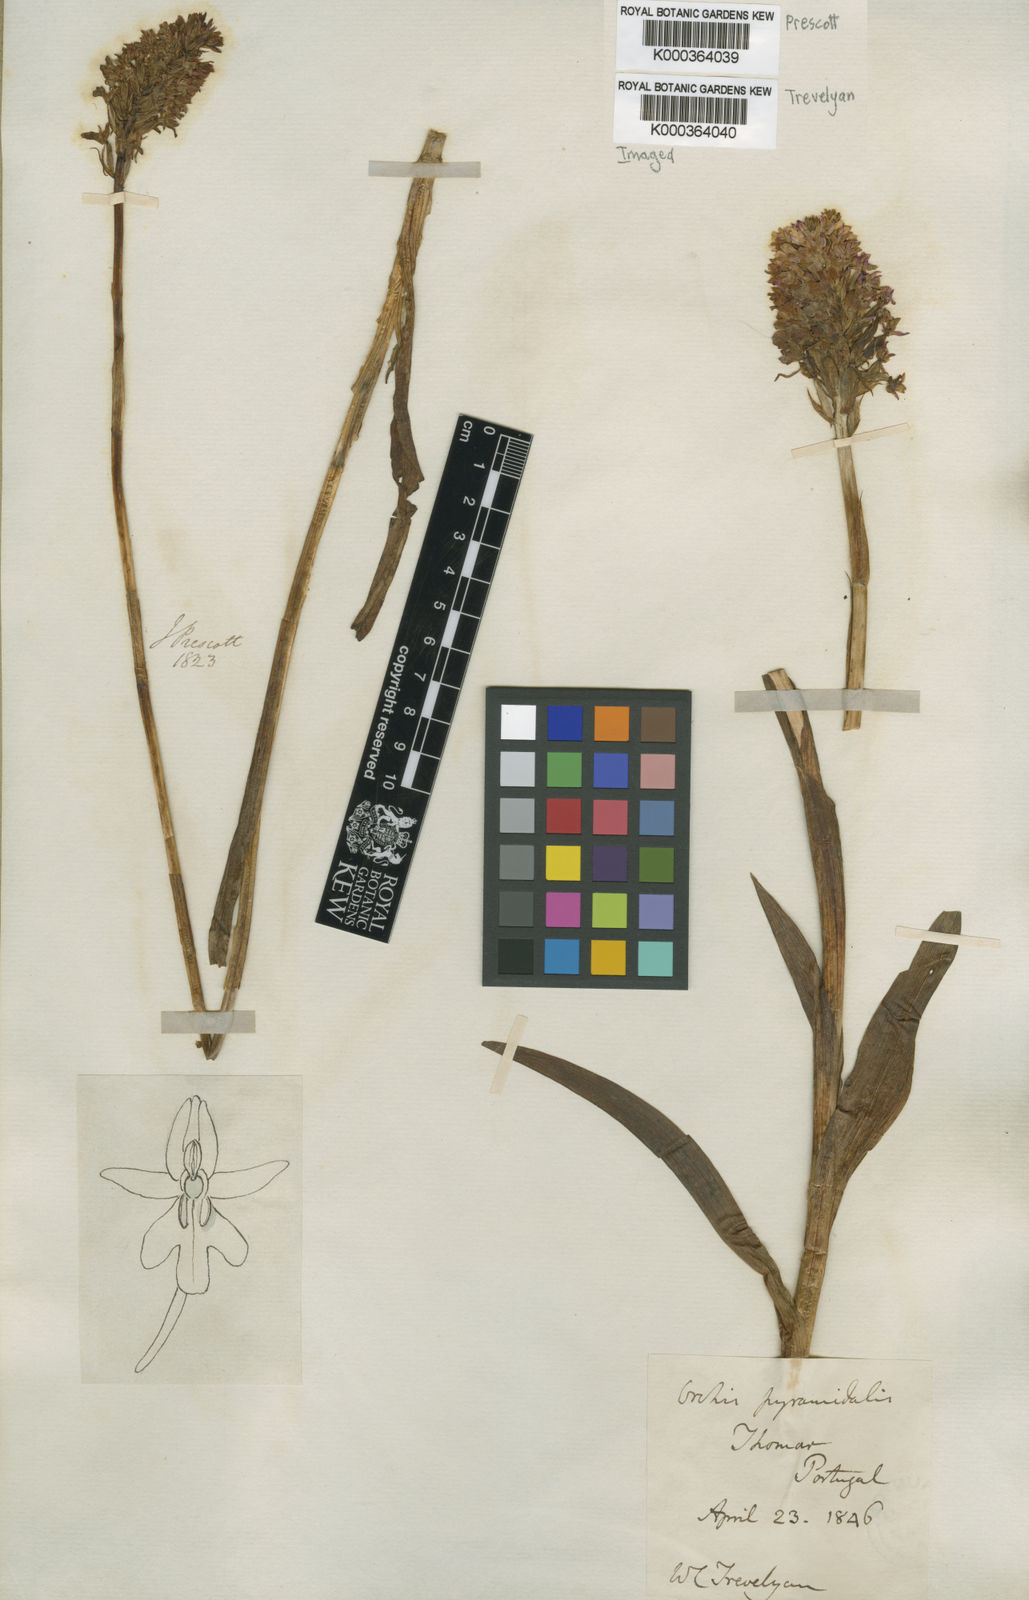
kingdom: Plantae
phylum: Tracheophyta
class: Liliopsida
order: Asparagales
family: Orchidaceae
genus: Anacamptis
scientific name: Anacamptis pyramidalis
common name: Pyramidal orchid
